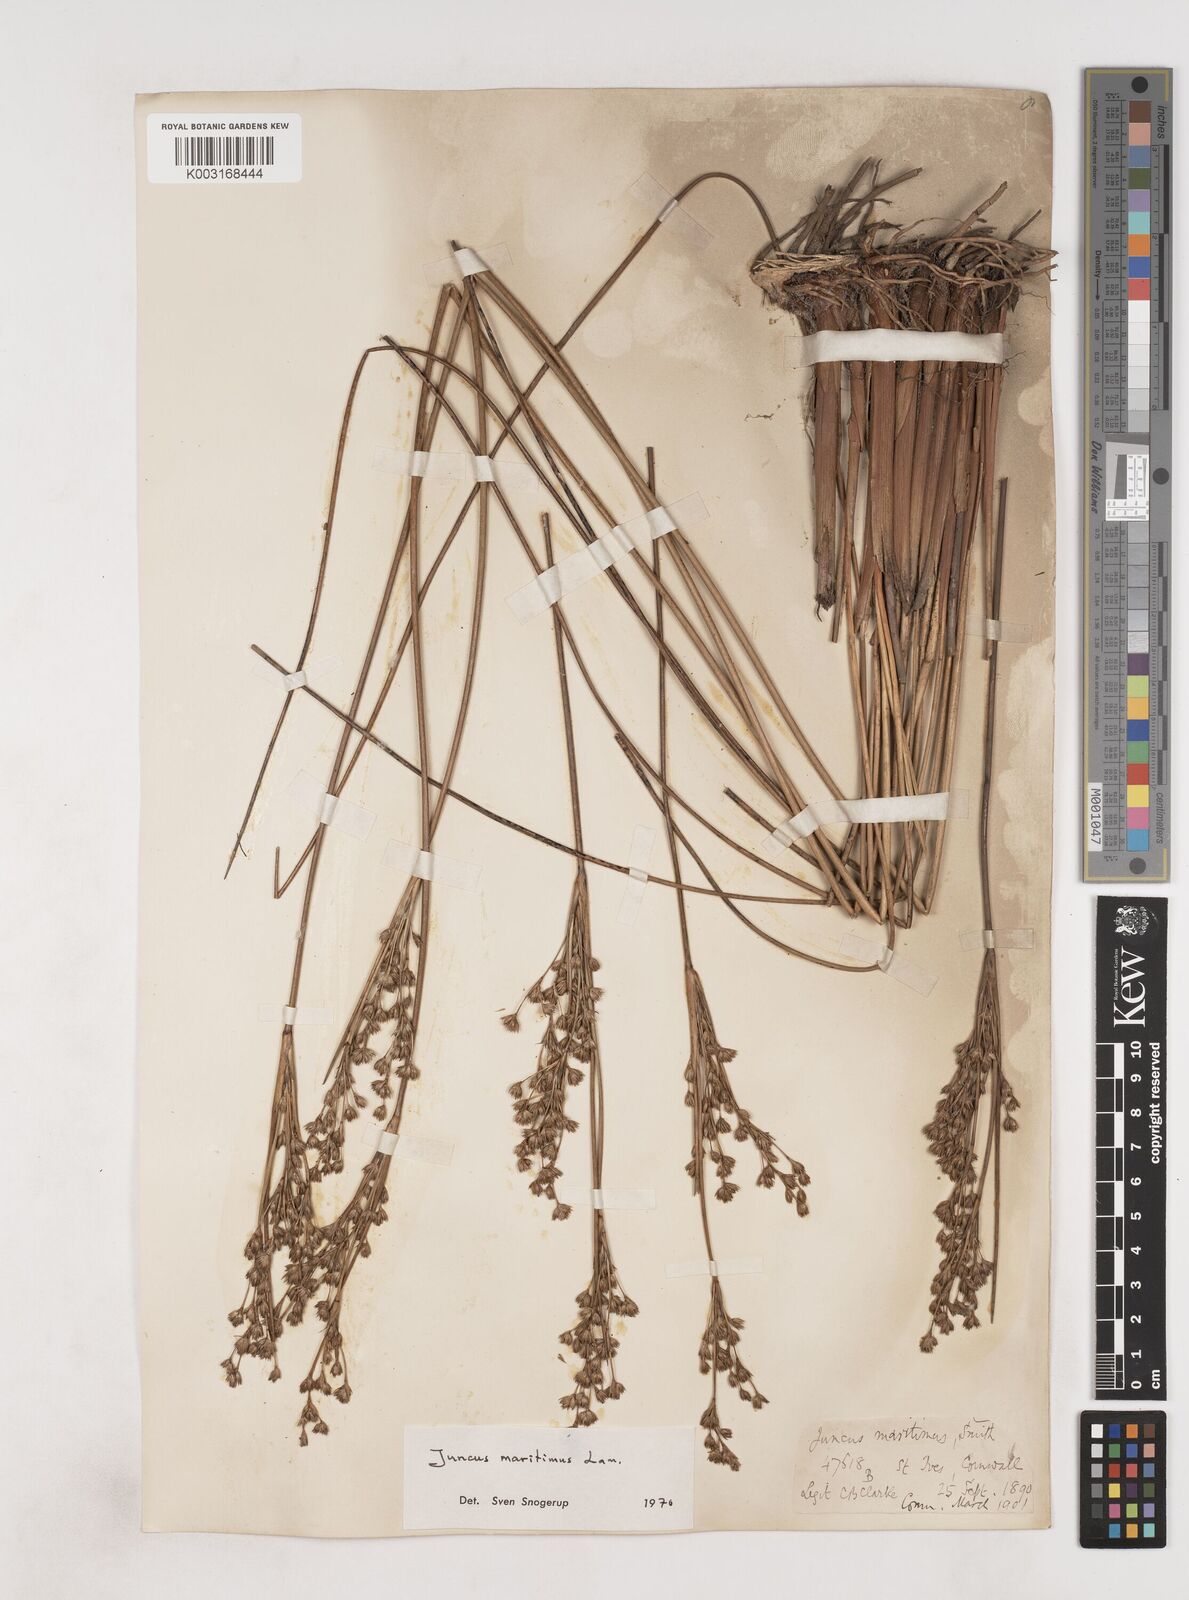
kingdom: Plantae
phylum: Tracheophyta
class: Liliopsida
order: Poales
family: Juncaceae
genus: Juncus
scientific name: Juncus maritimus
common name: Sea rush
